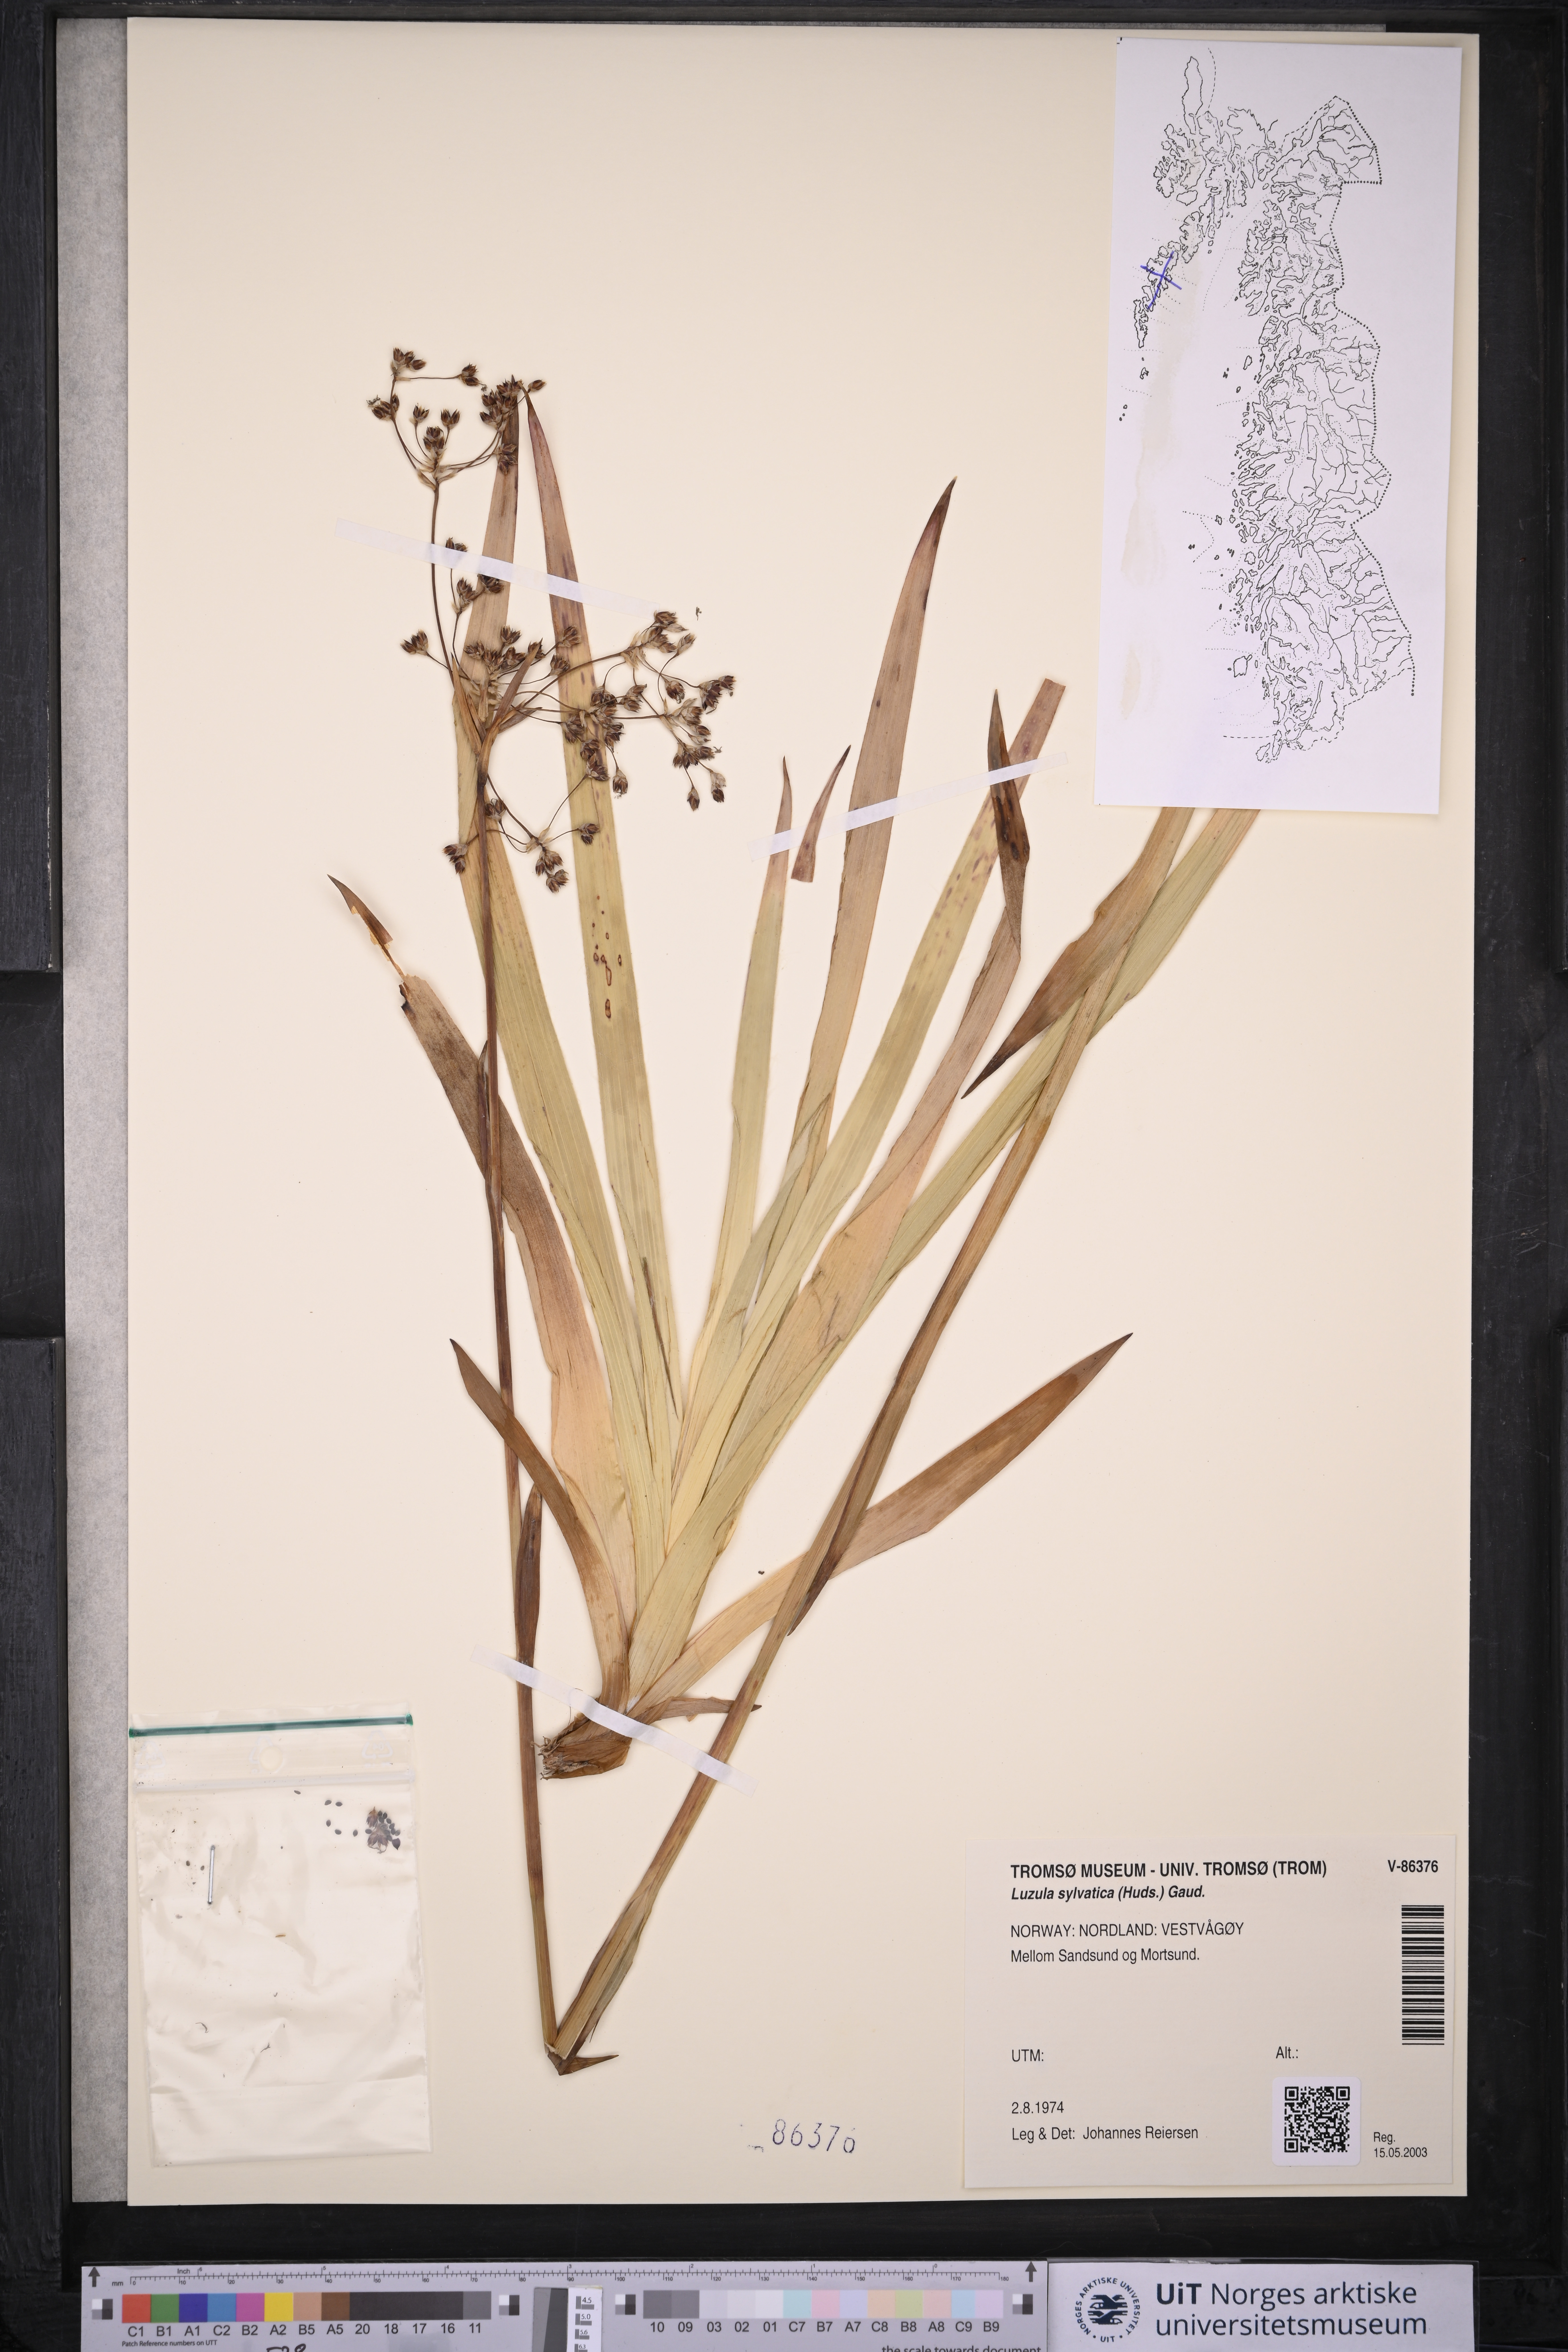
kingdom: Plantae
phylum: Tracheophyta
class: Liliopsida
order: Poales
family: Juncaceae
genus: Luzula
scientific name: Luzula sylvatica
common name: Great wood-rush
